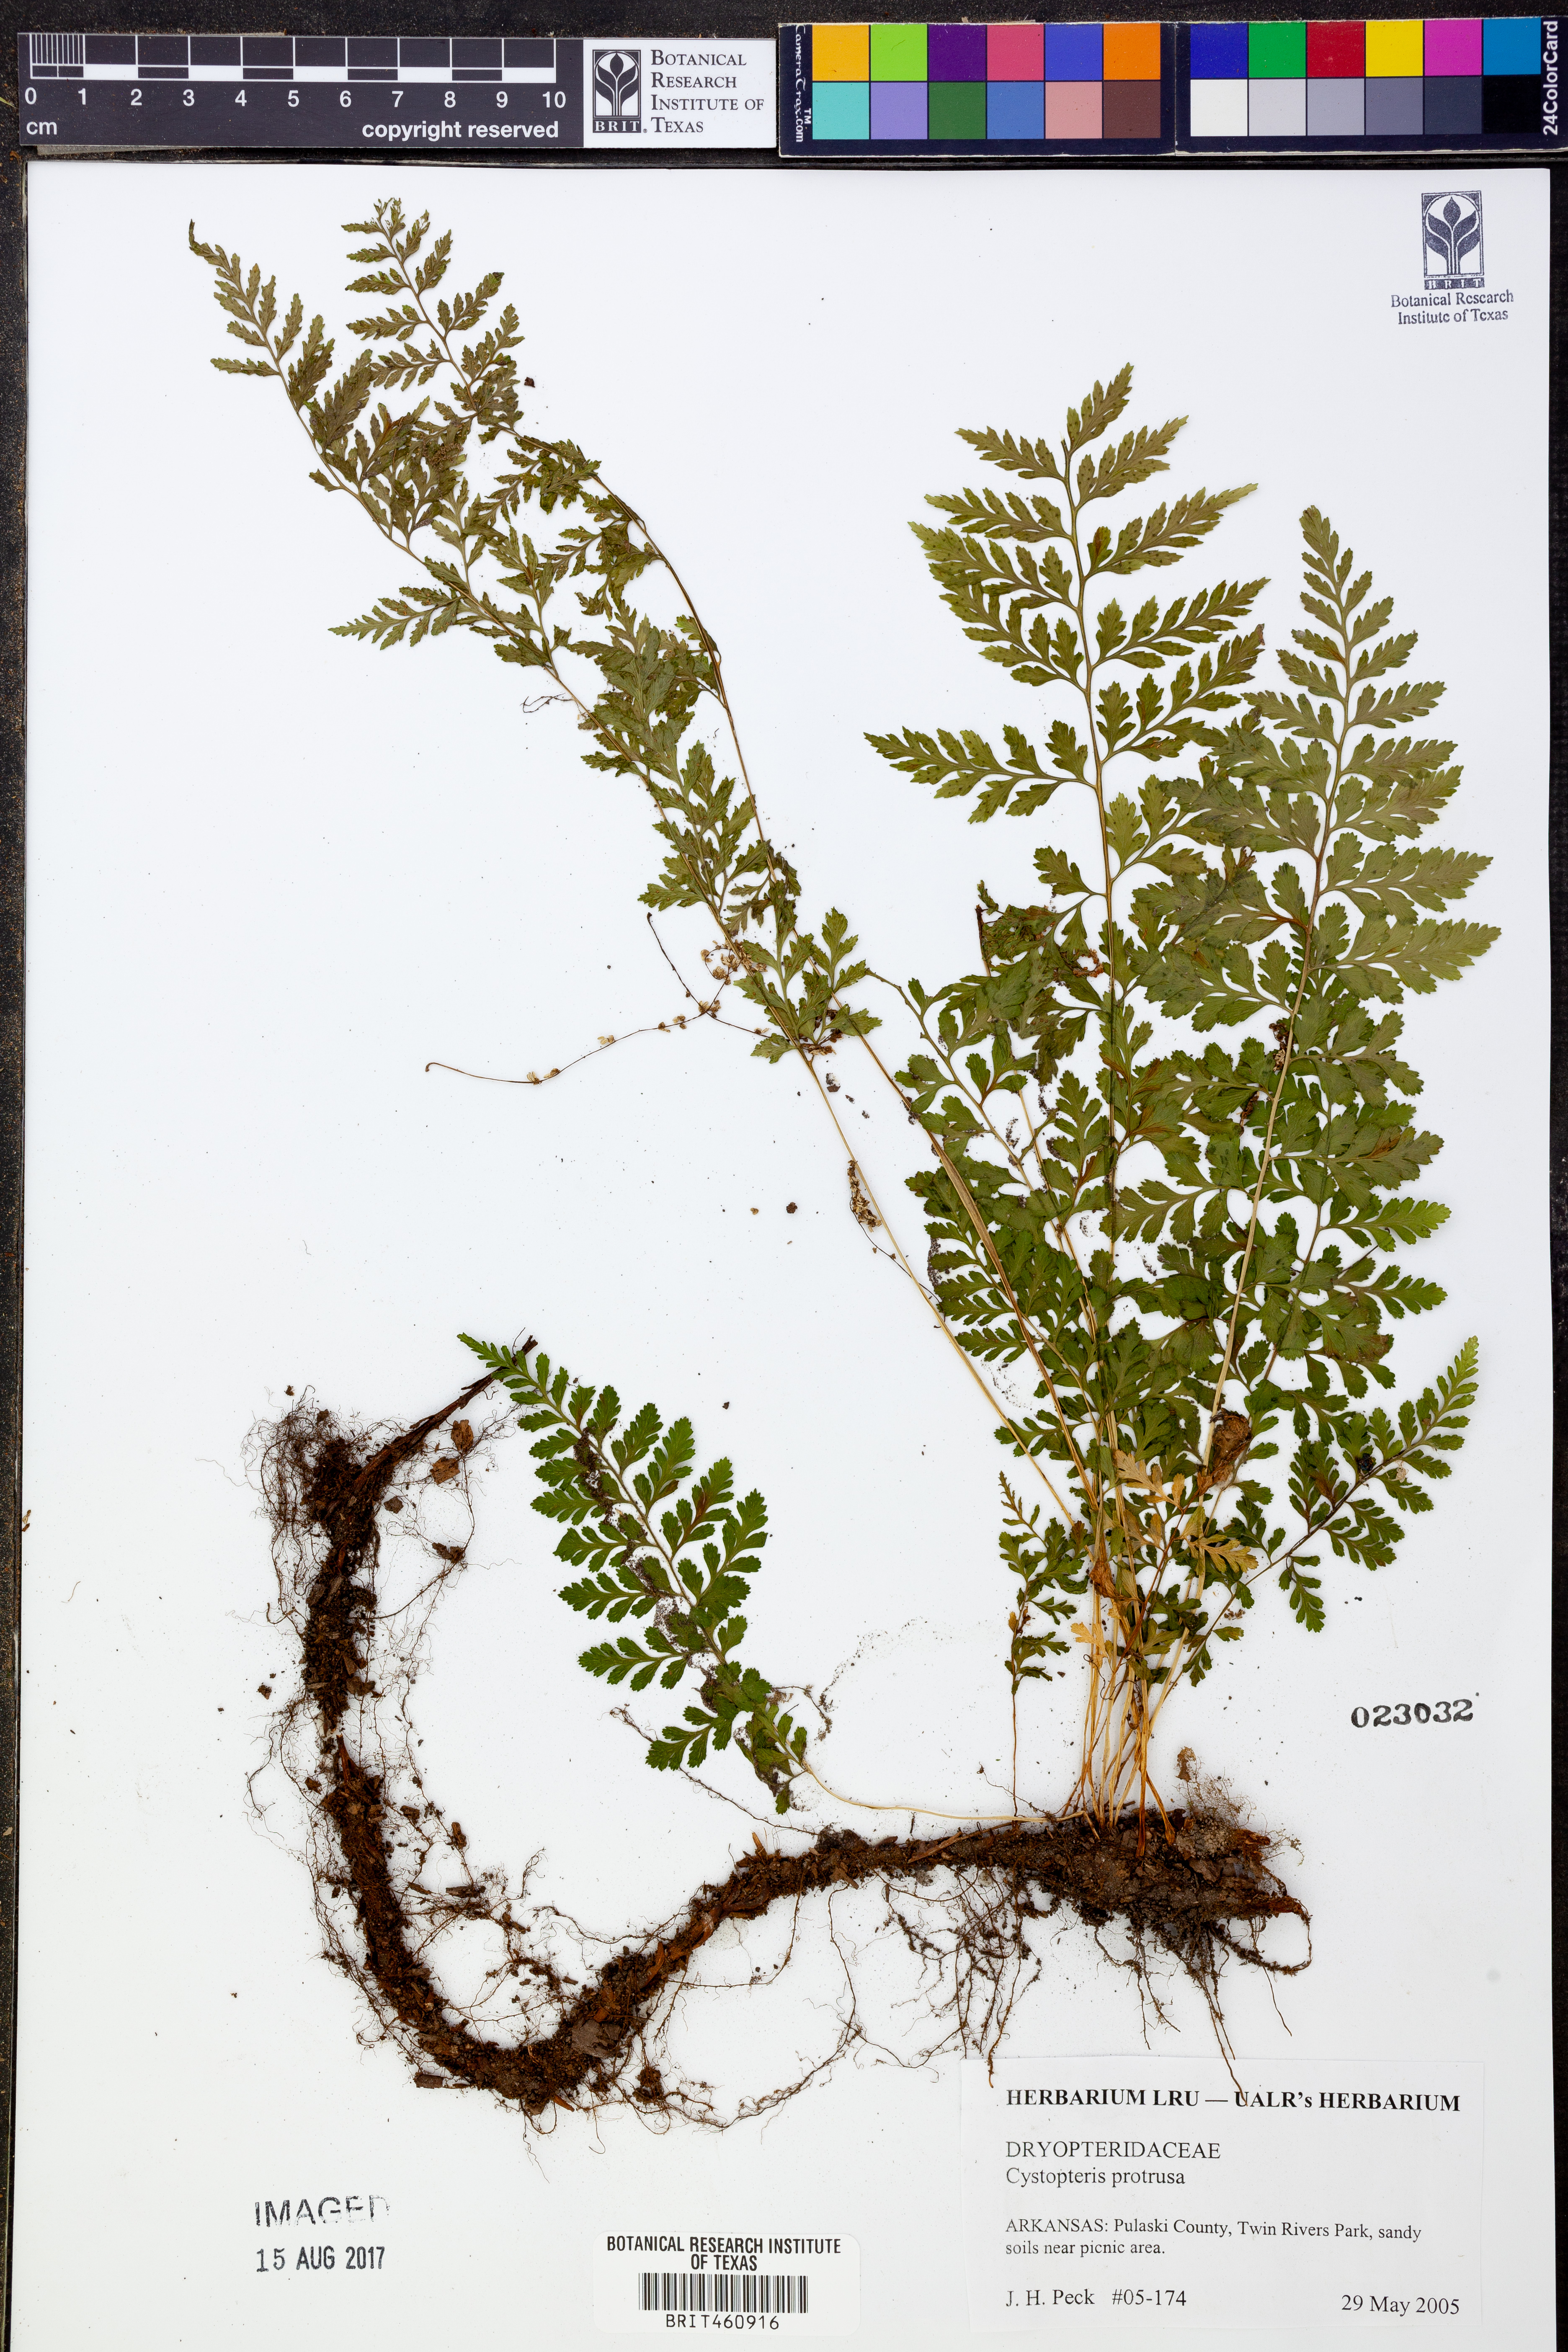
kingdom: Plantae
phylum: Tracheophyta
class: Polypodiopsida
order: Polypodiales
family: Cystopteridaceae
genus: Cystopteris
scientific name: Cystopteris protrusa
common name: Lowland brittle fern
